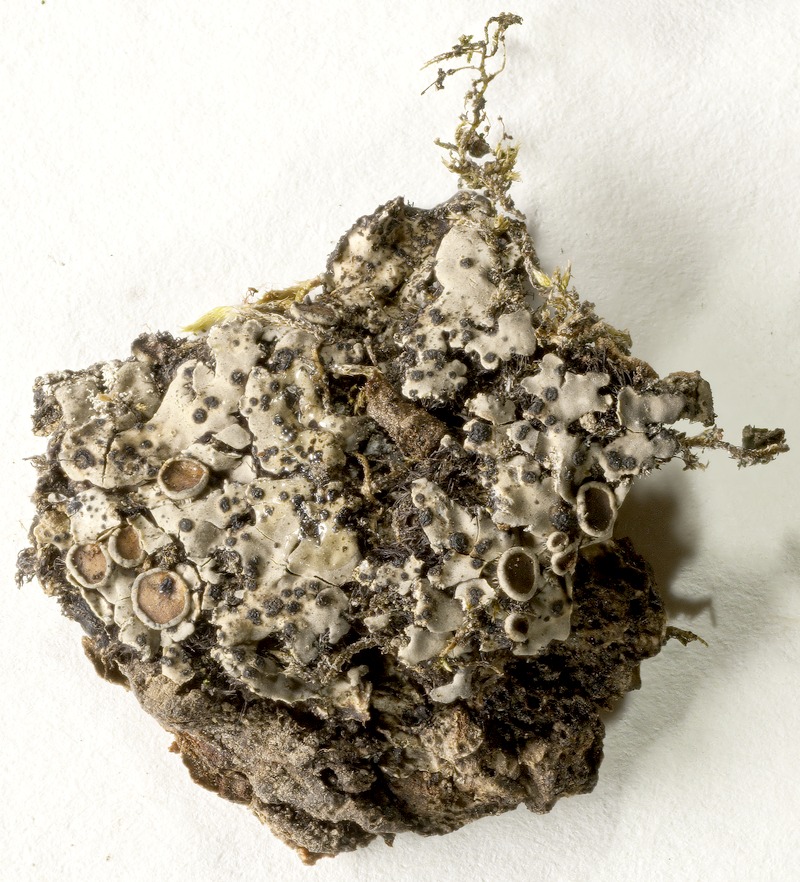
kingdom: Fungi
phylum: Ascomycota
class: Lecanoromycetes
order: Caliciales
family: Physciaceae
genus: Phaeophyscia
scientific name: Phaeophyscia hispidula
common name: Whiskered shadow lichen
